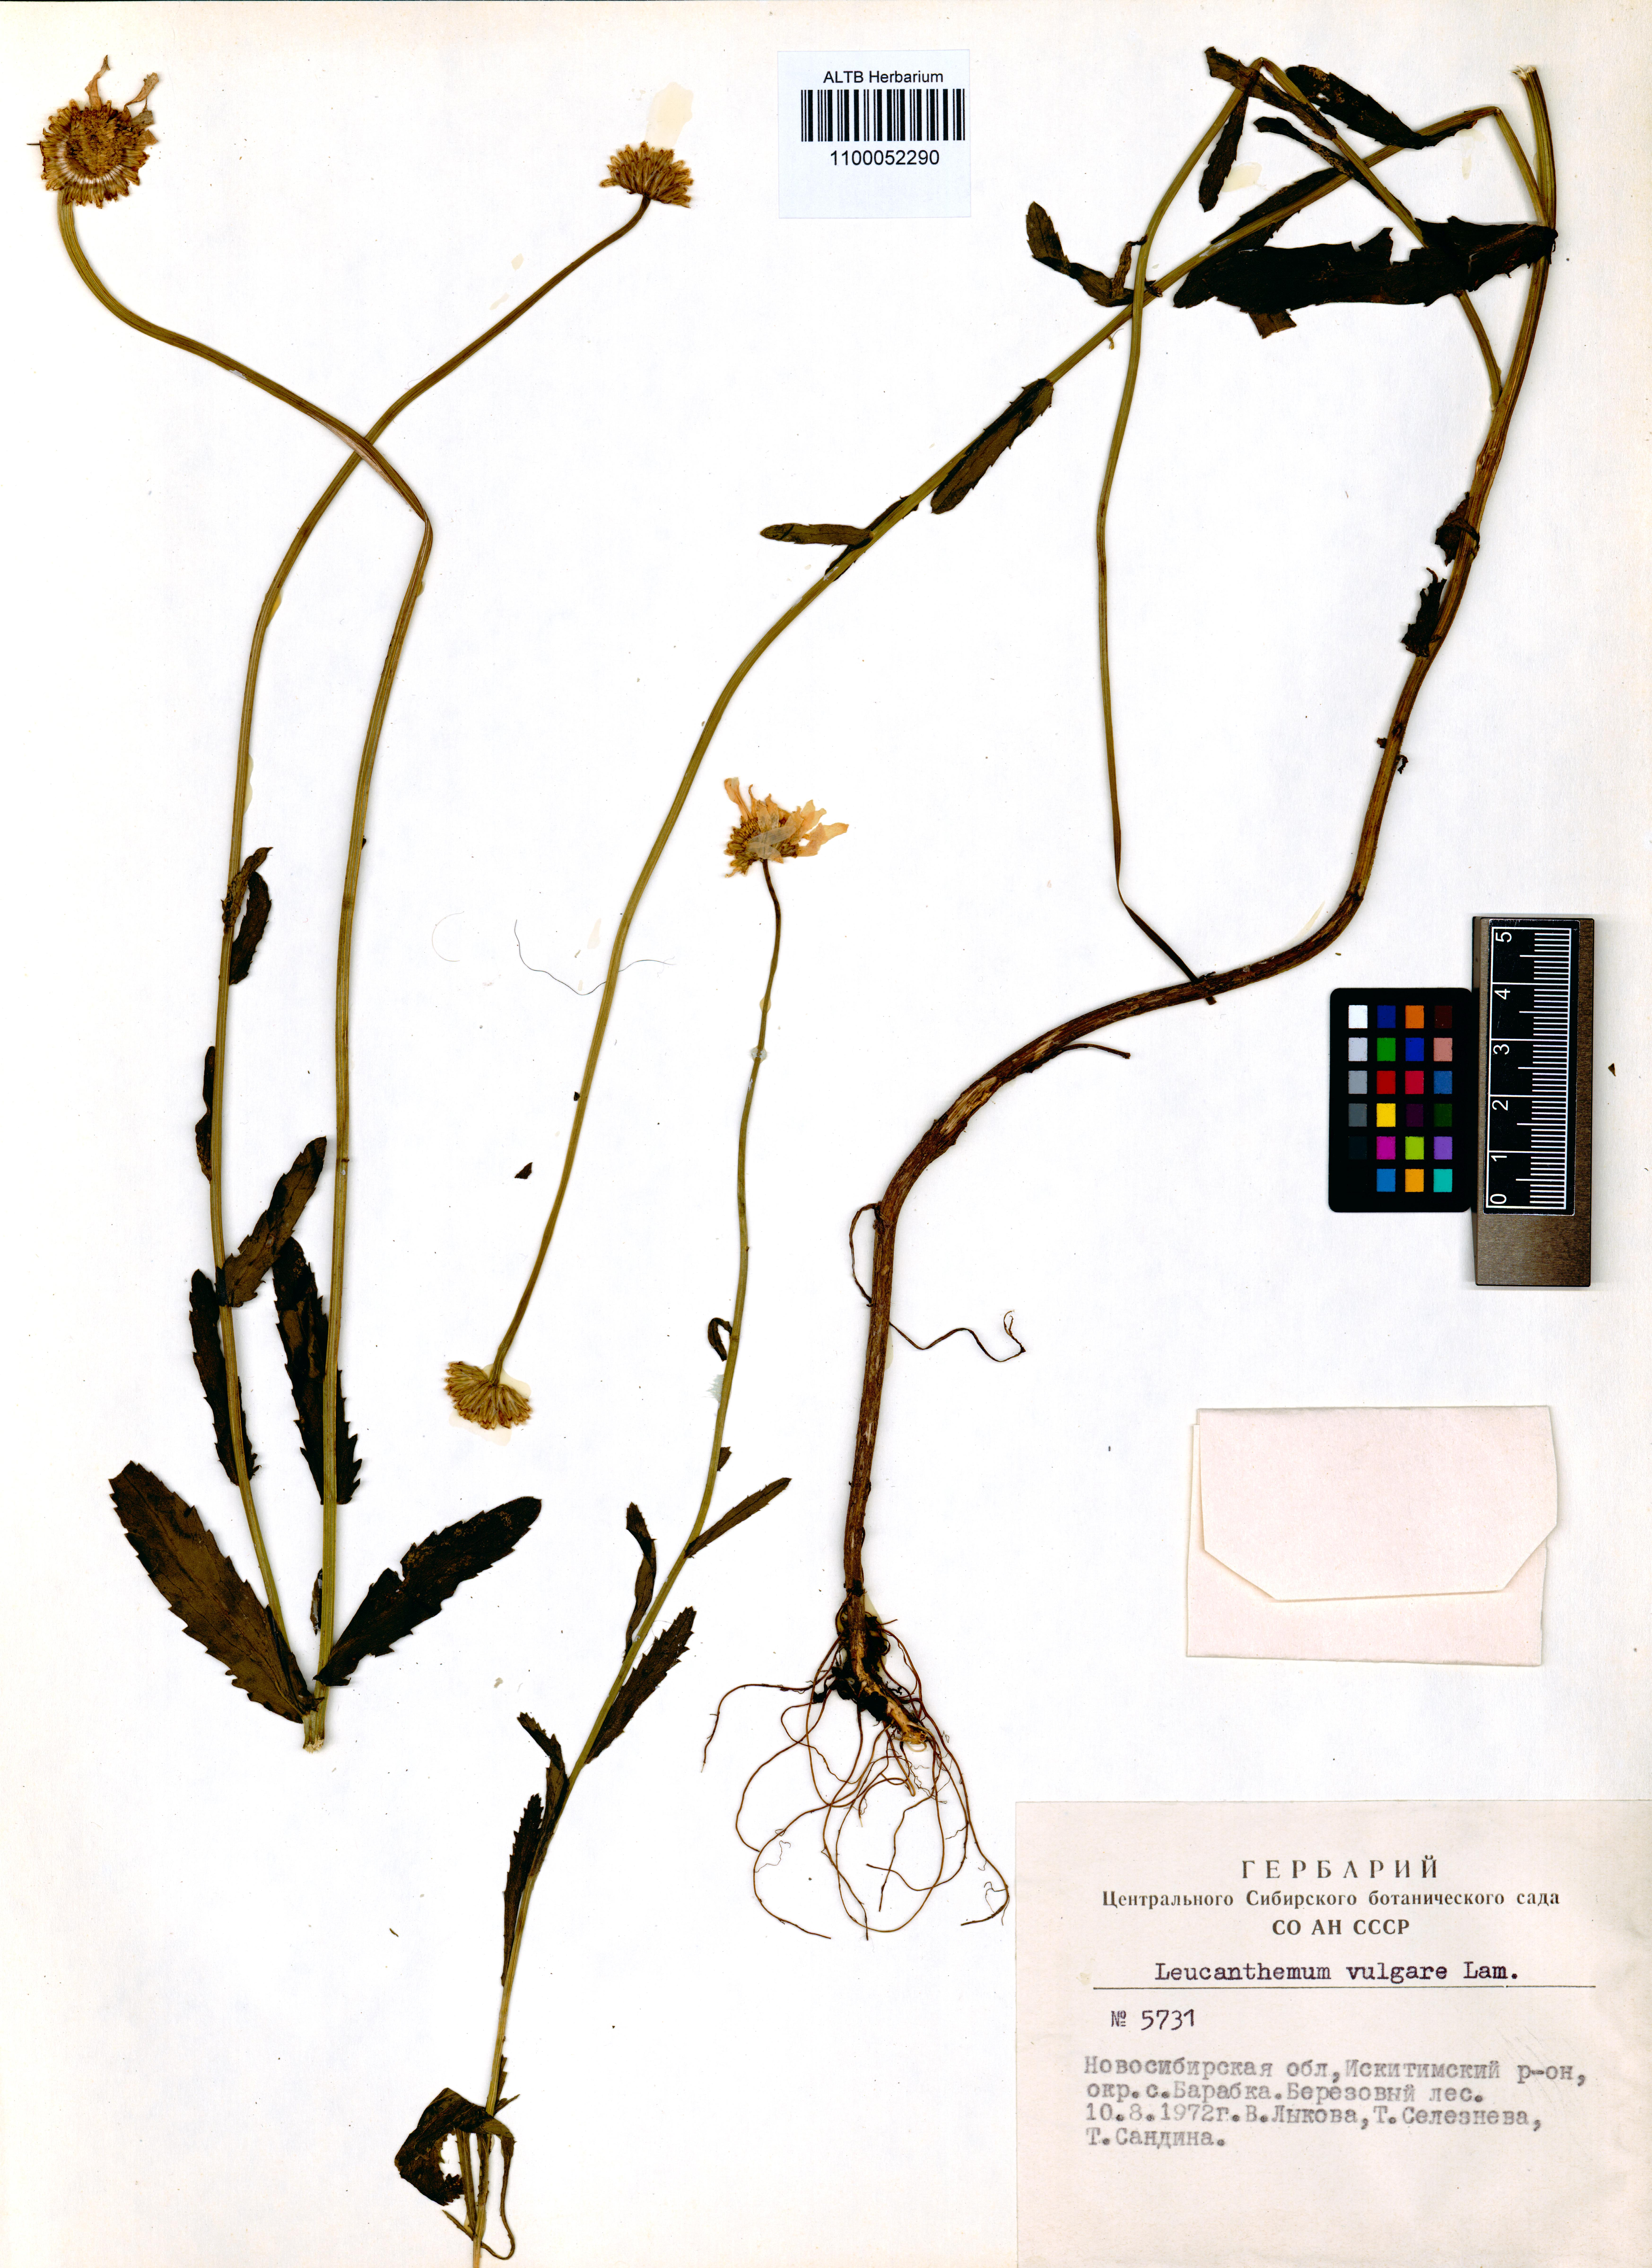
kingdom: Plantae
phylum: Tracheophyta
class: Magnoliopsida
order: Asterales
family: Asteraceae
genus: Leucanthemum
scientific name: Leucanthemum vulgare
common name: Oxeye daisy
